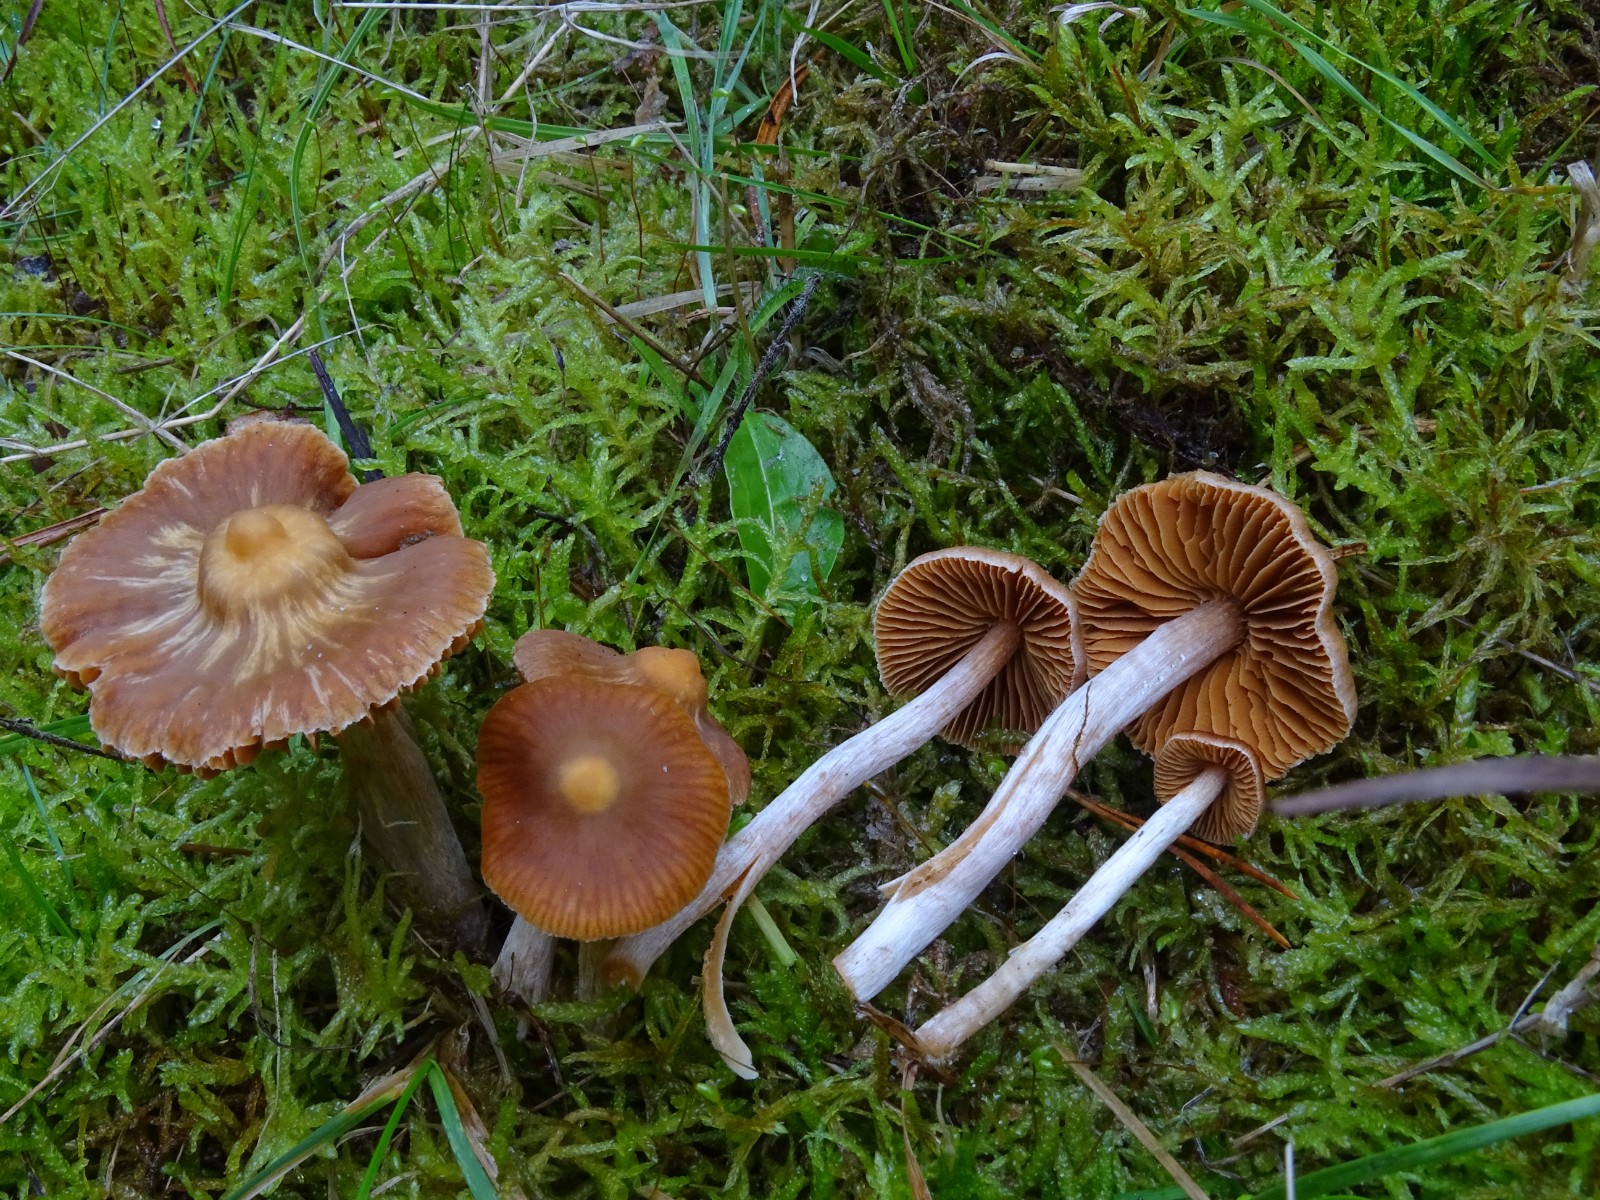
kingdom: Fungi
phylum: Basidiomycota
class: Agaricomycetes
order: Agaricales
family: Cortinariaceae
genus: Cortinarius
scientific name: Cortinarius
